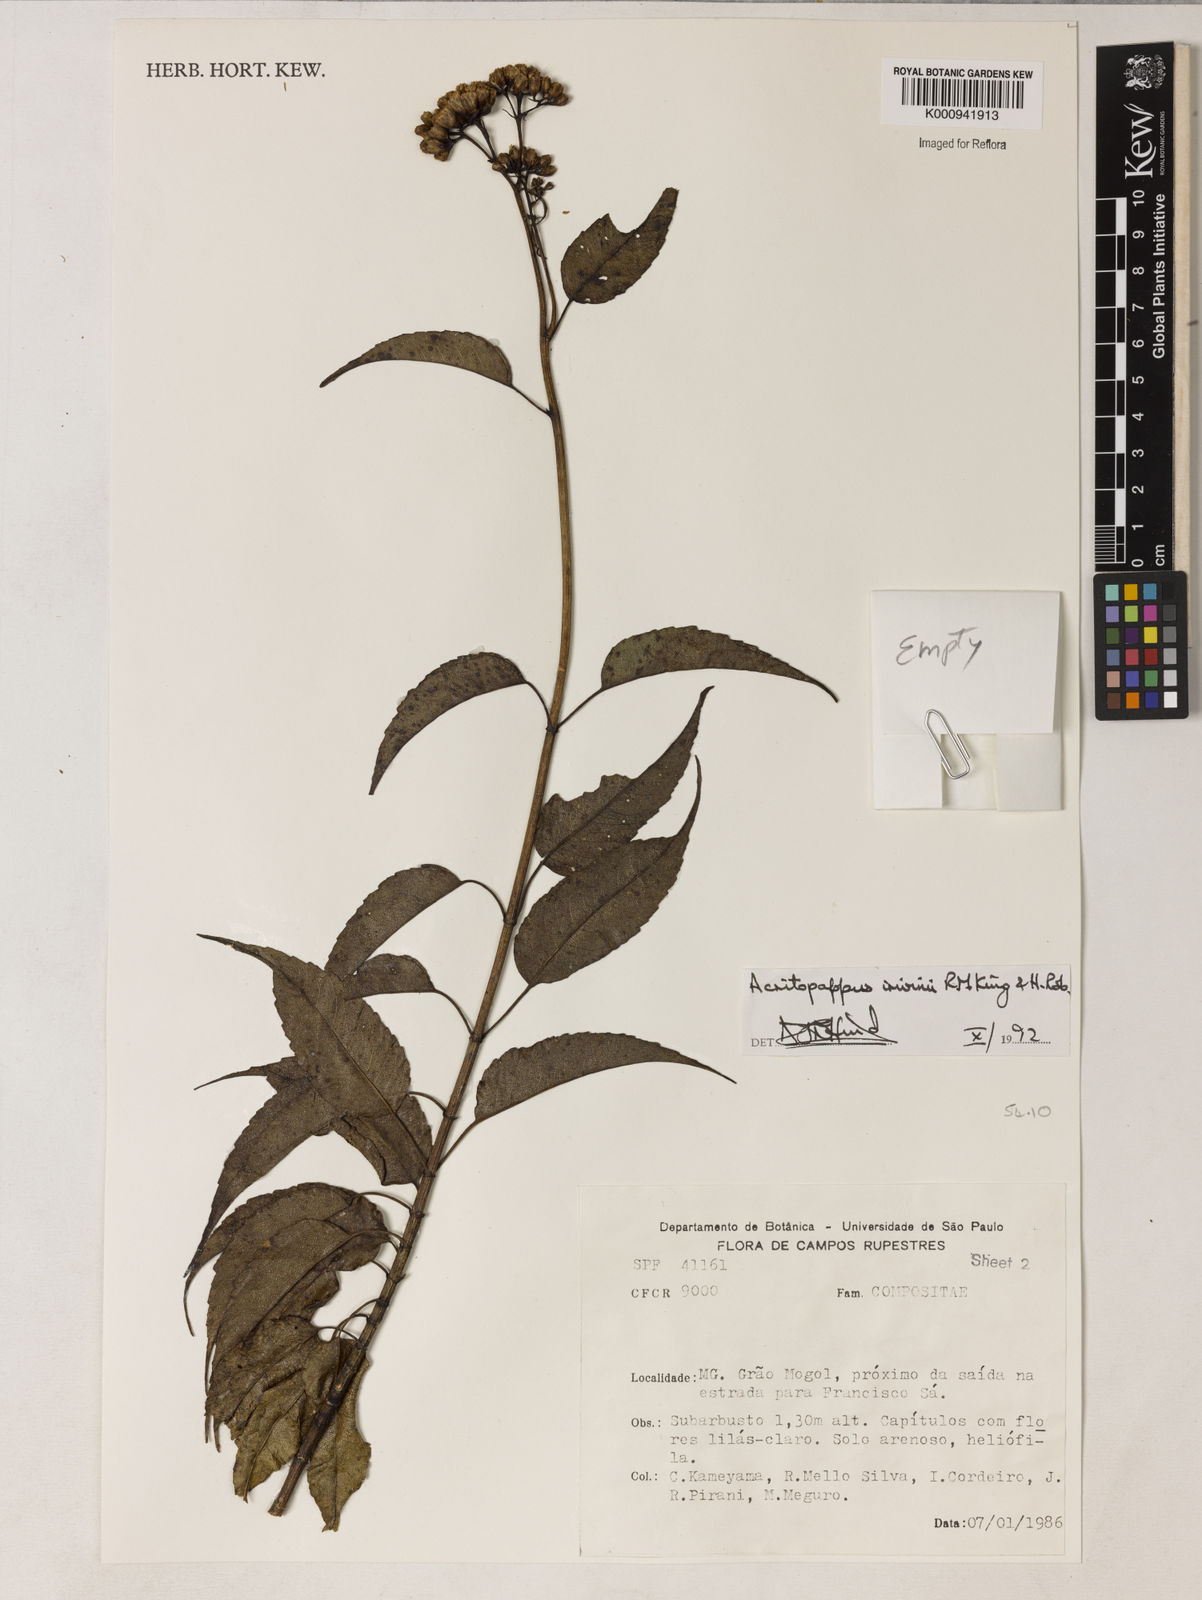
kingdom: Plantae
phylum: Tracheophyta
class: Magnoliopsida
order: Asterales
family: Asteraceae
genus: Acritopappus
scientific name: Acritopappus irwinii
